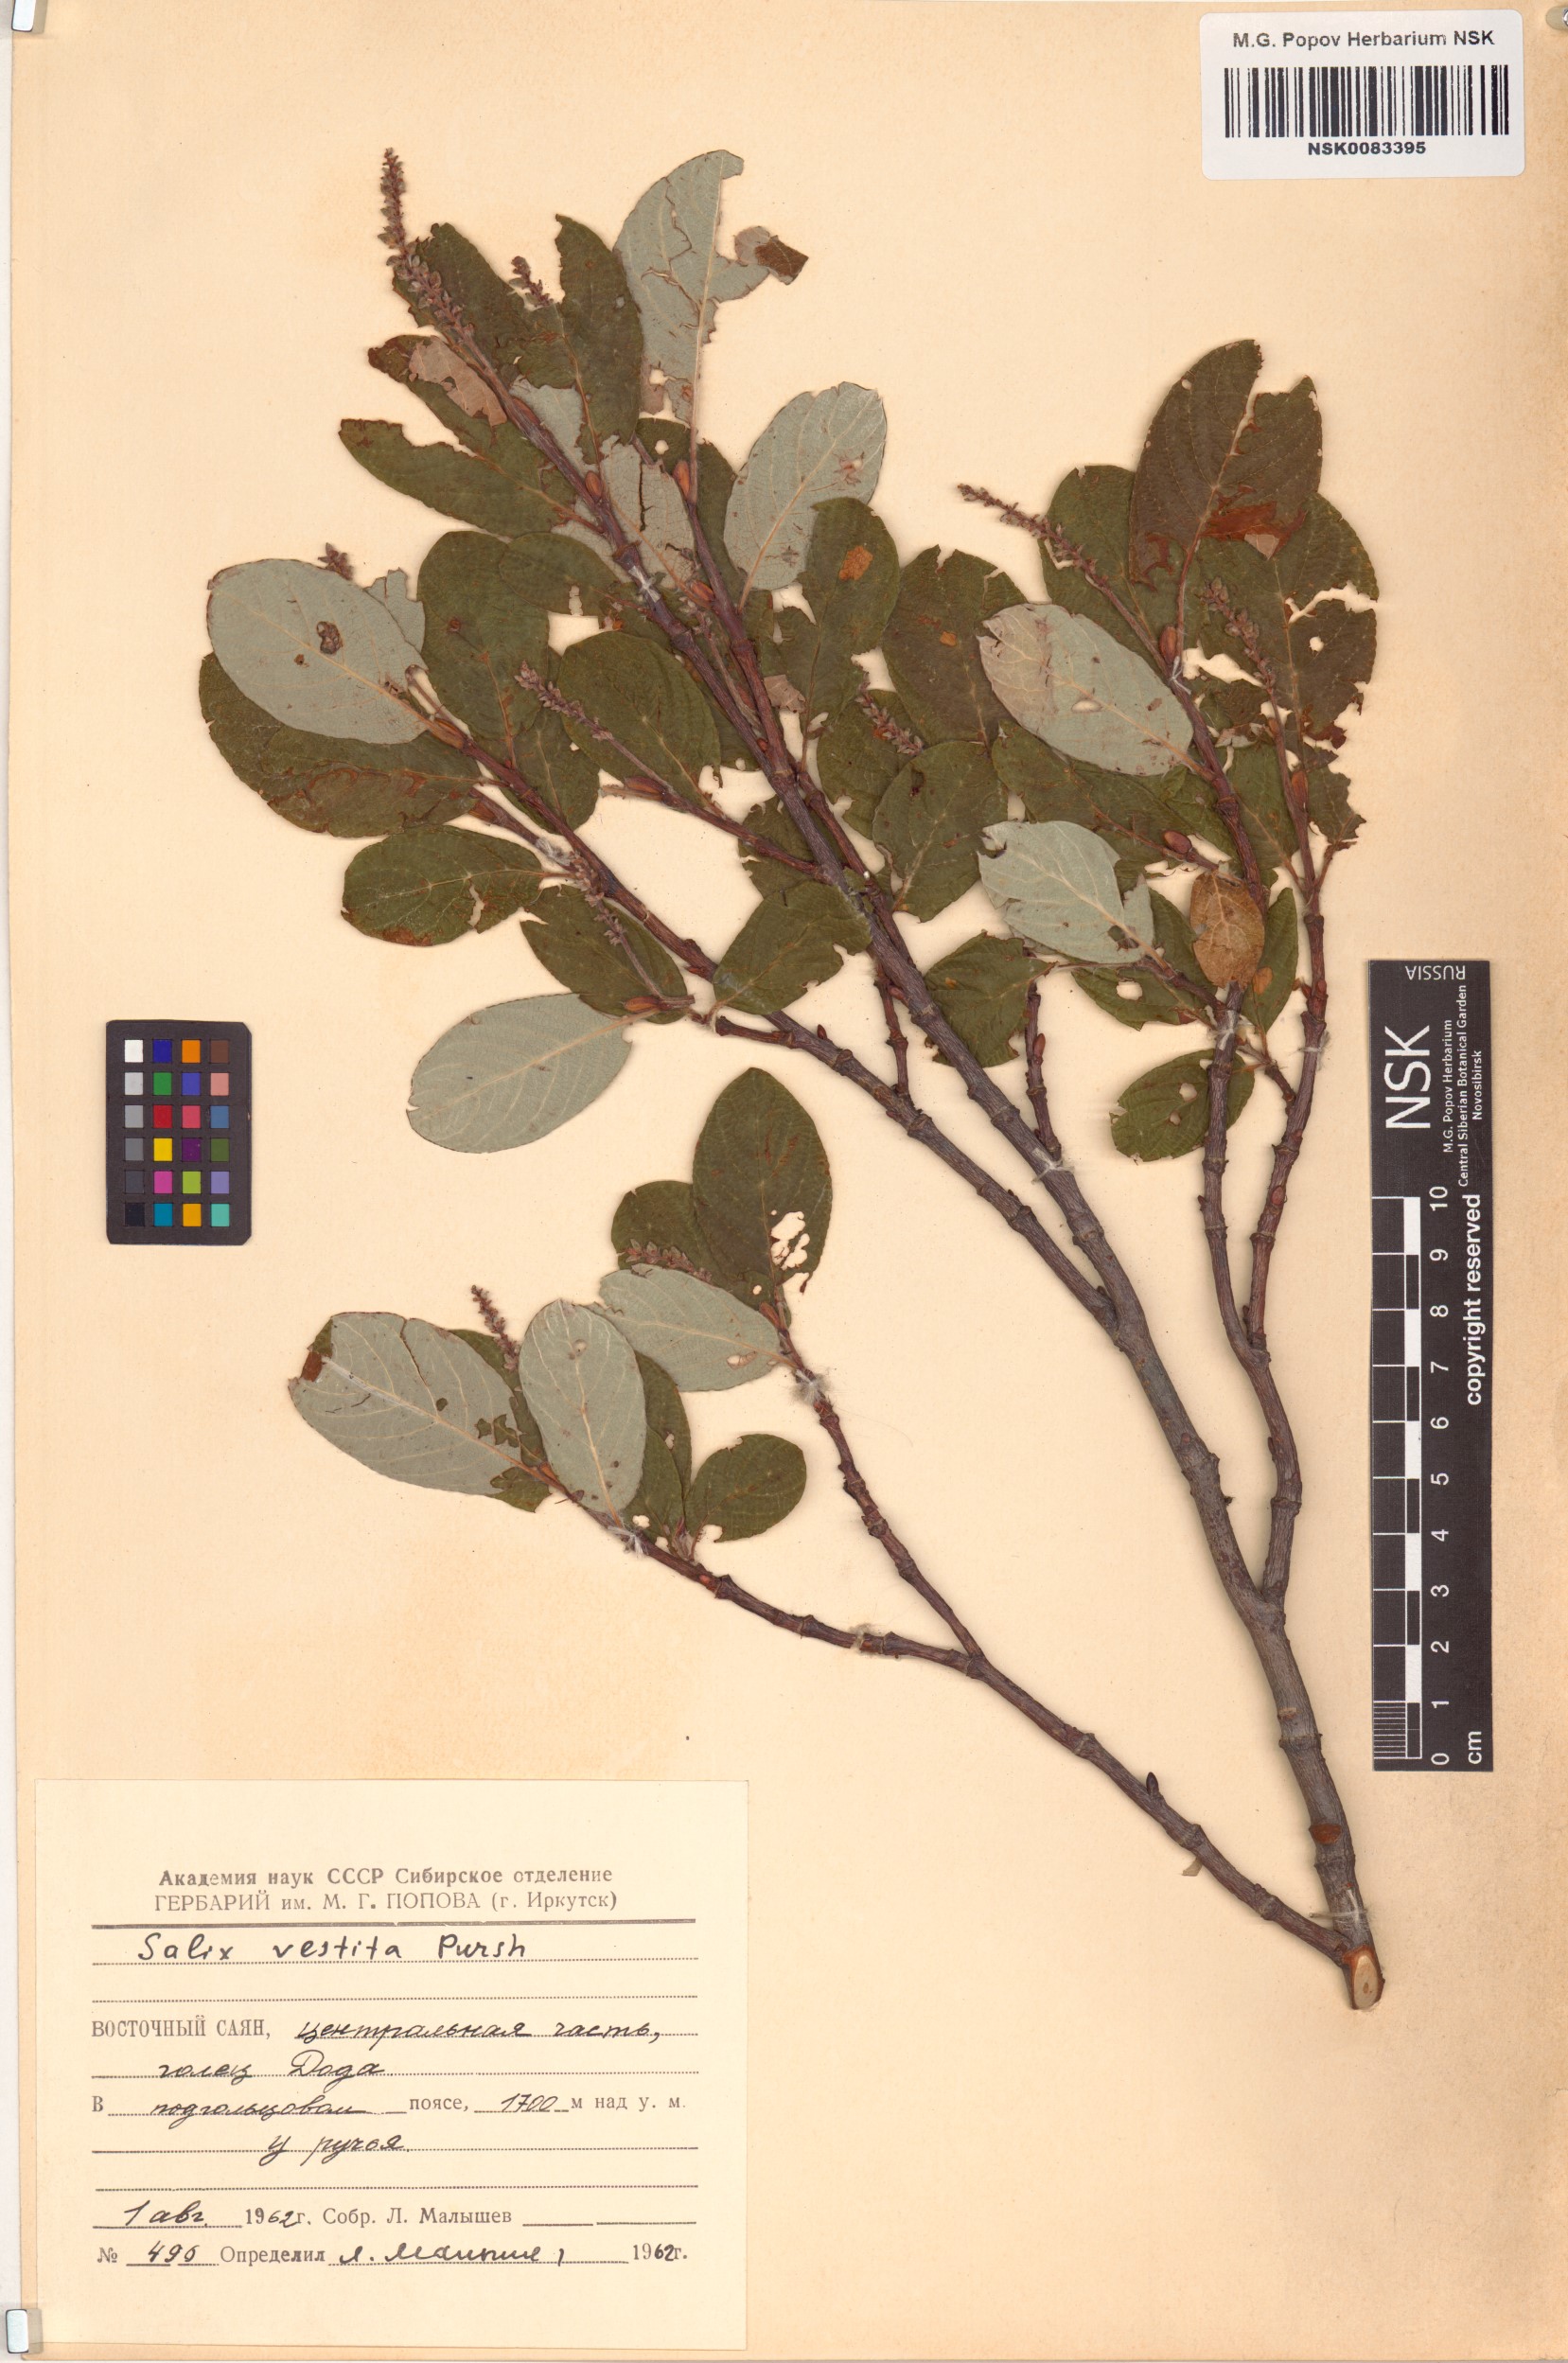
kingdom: Plantae
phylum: Tracheophyta
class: Magnoliopsida
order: Malpighiales
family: Salicaceae
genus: Salix
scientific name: Salix vestita
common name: Hairy willow
